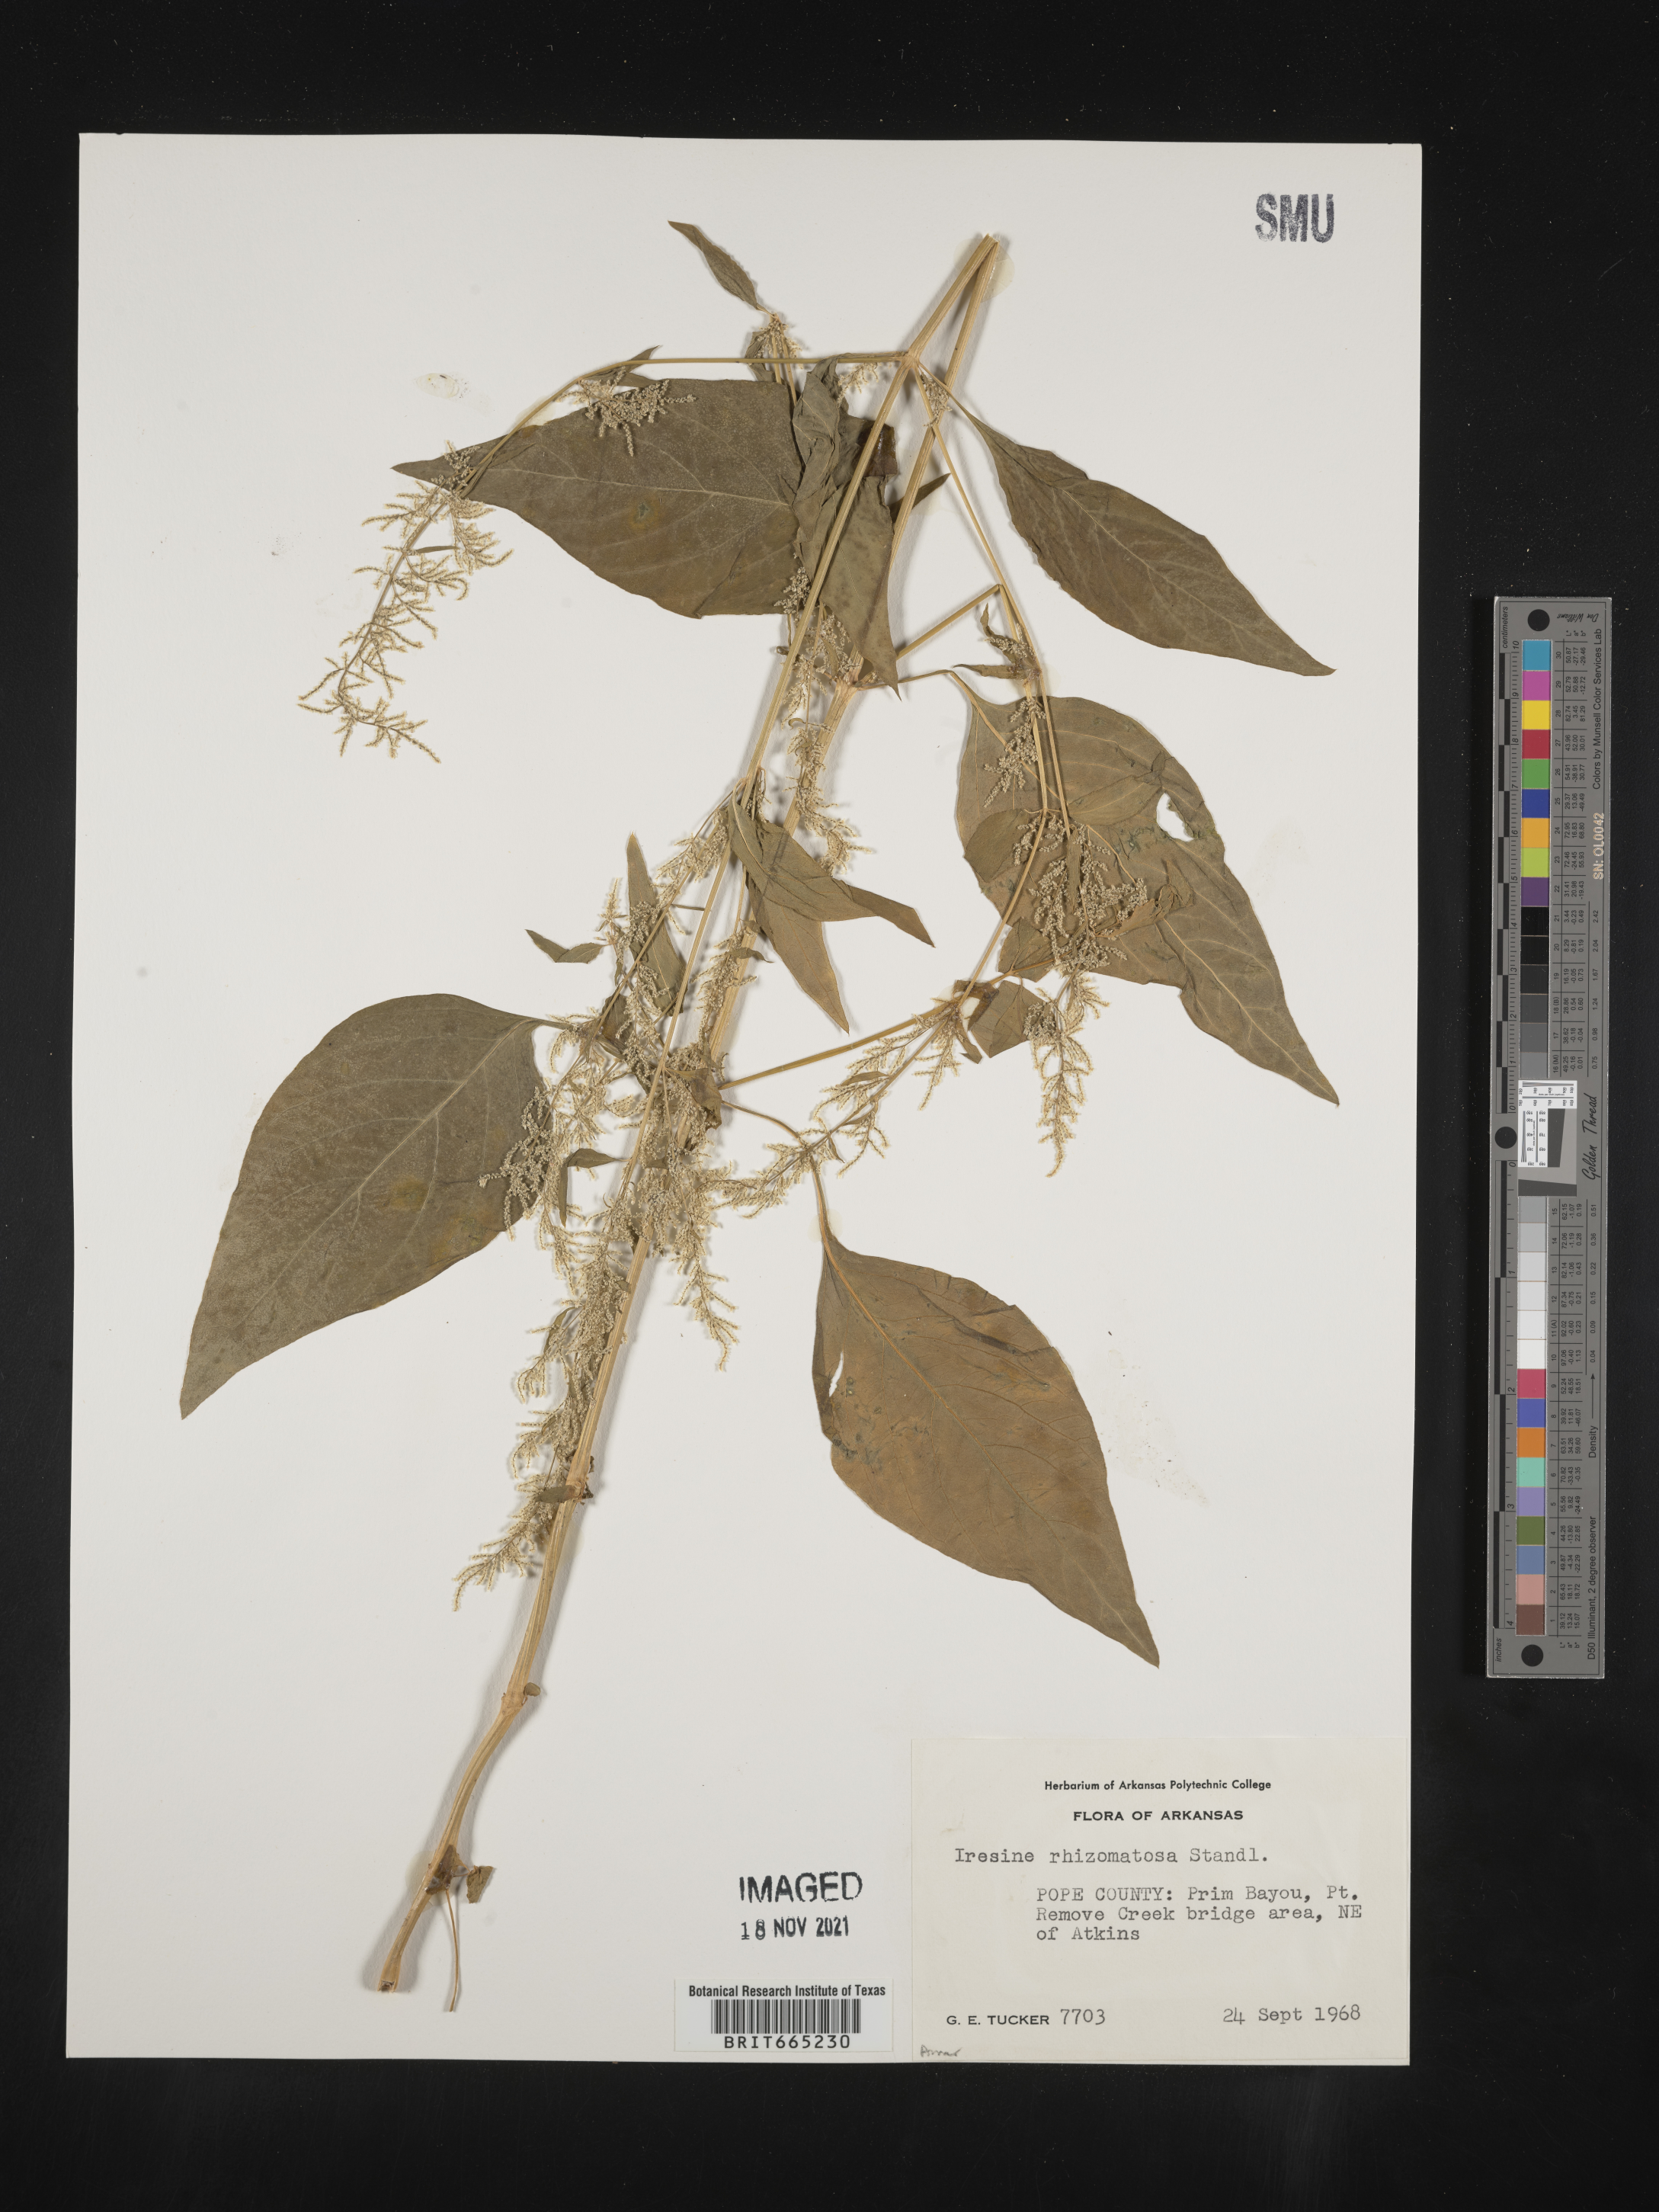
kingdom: Plantae
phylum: Tracheophyta
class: Magnoliopsida
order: Caryophyllales
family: Amaranthaceae
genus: Iresine
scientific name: Iresine rhizomatosa
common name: Juda's-bush
